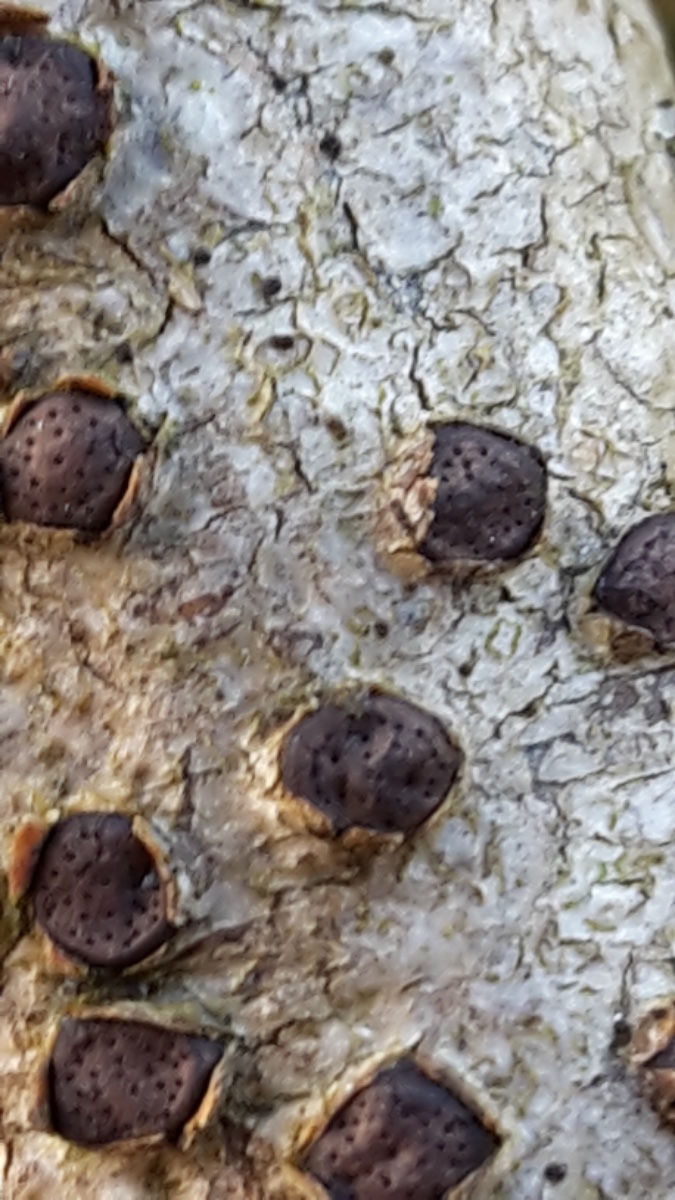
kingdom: Fungi
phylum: Ascomycota
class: Sordariomycetes
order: Xylariales
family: Diatrypaceae
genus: Diatrype
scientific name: Diatrype disciformis
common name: kant-kulskorpe
